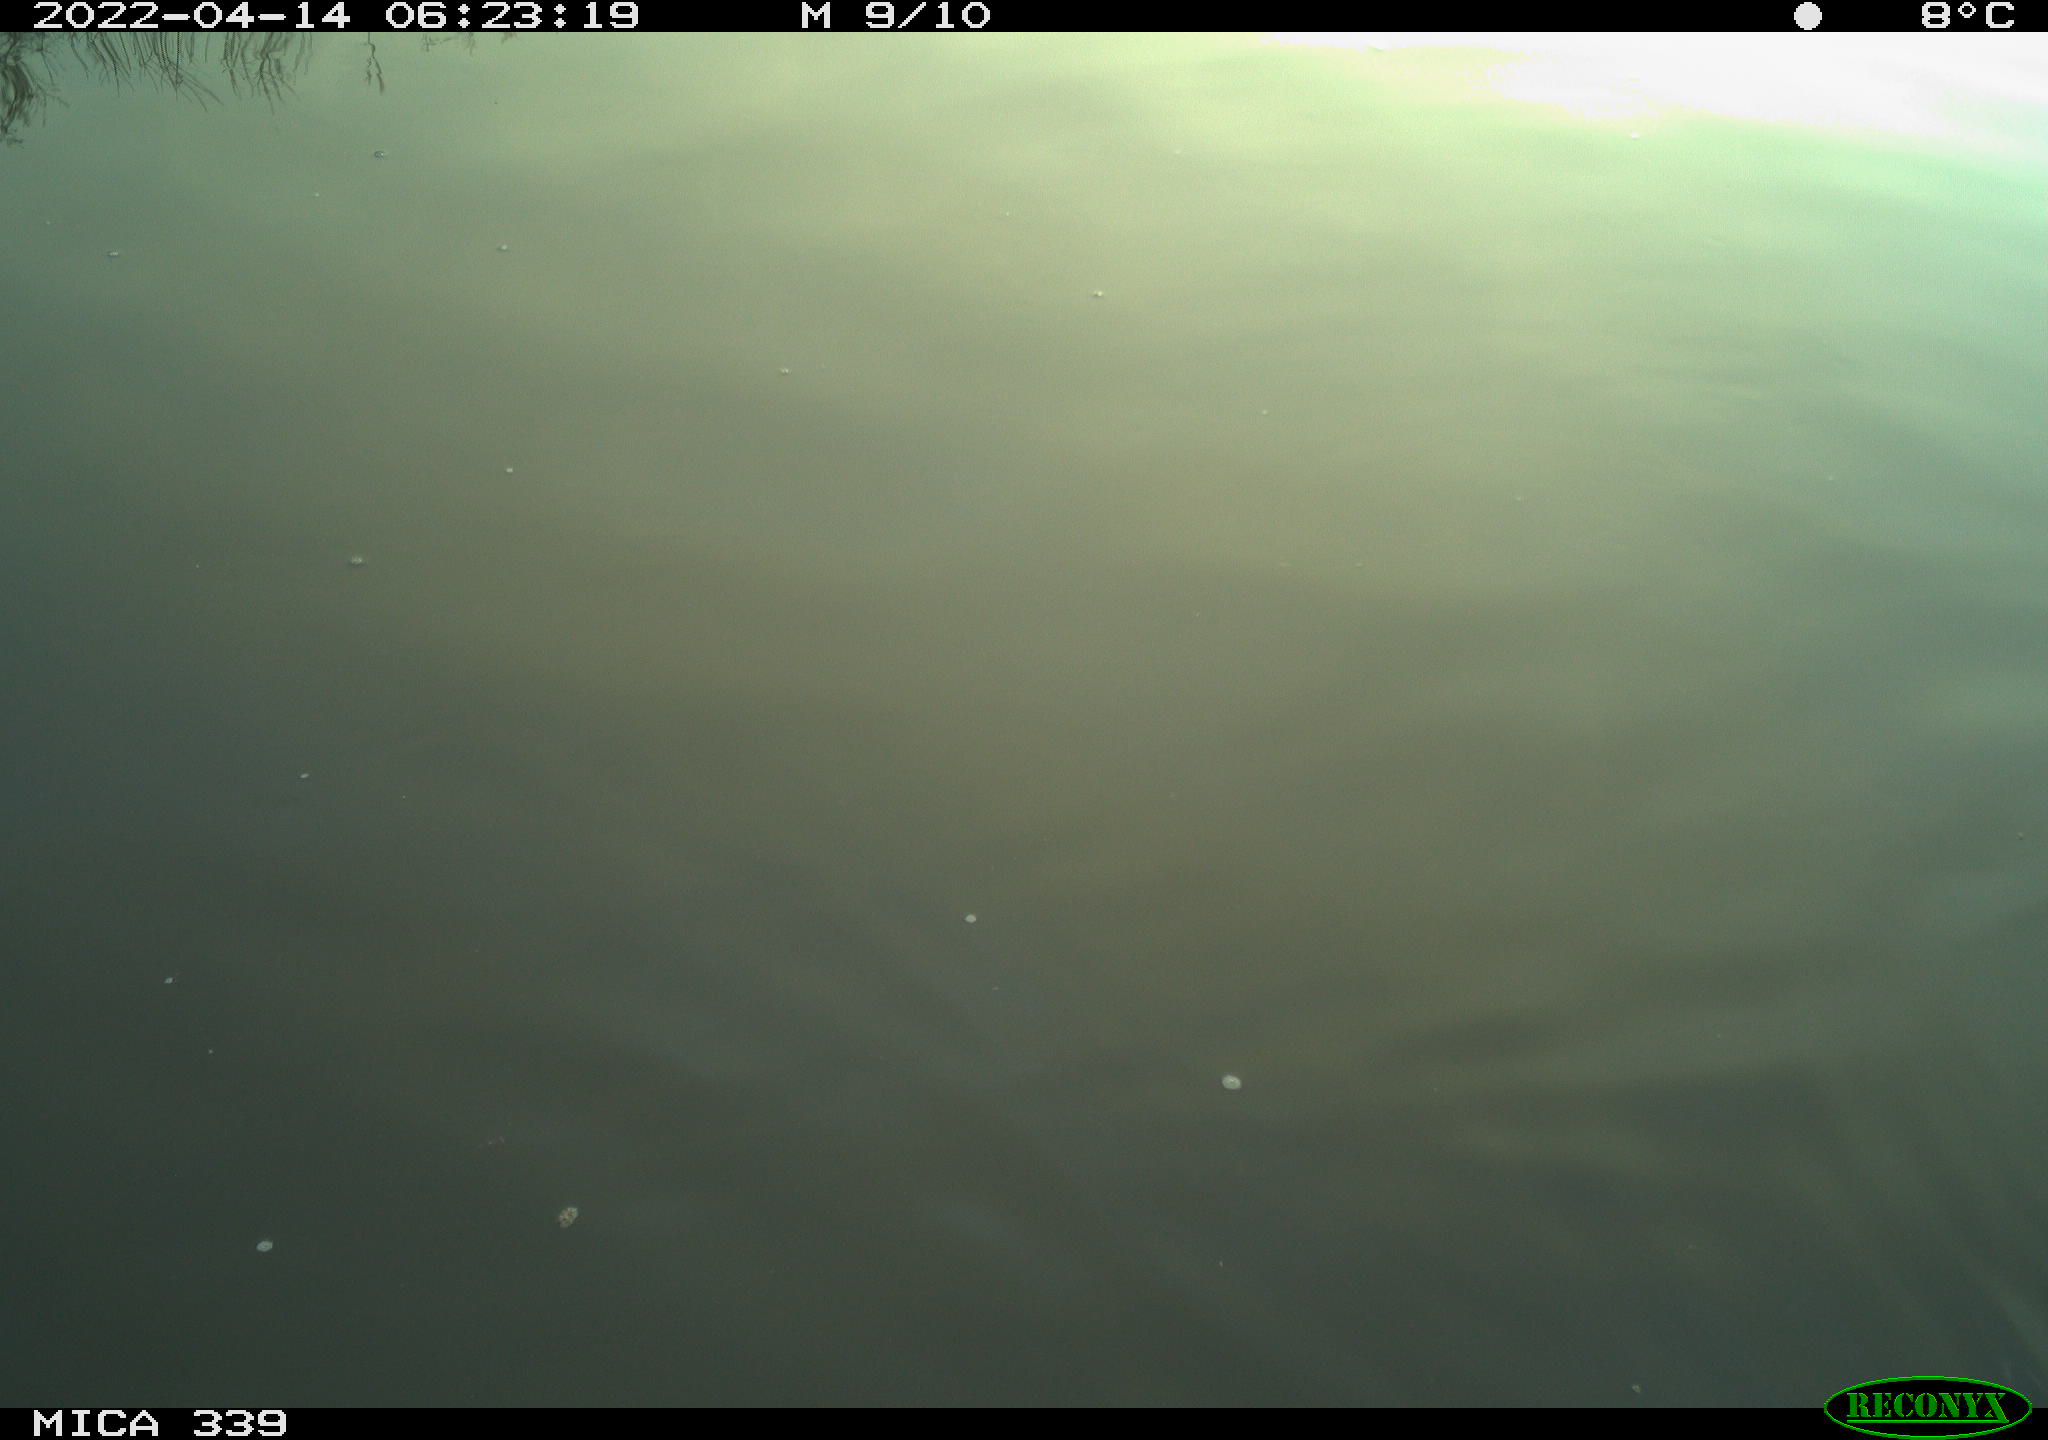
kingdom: Animalia
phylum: Chordata
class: Aves
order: Anseriformes
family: Anatidae
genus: Anas
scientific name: Anas platyrhynchos
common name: Mallard
